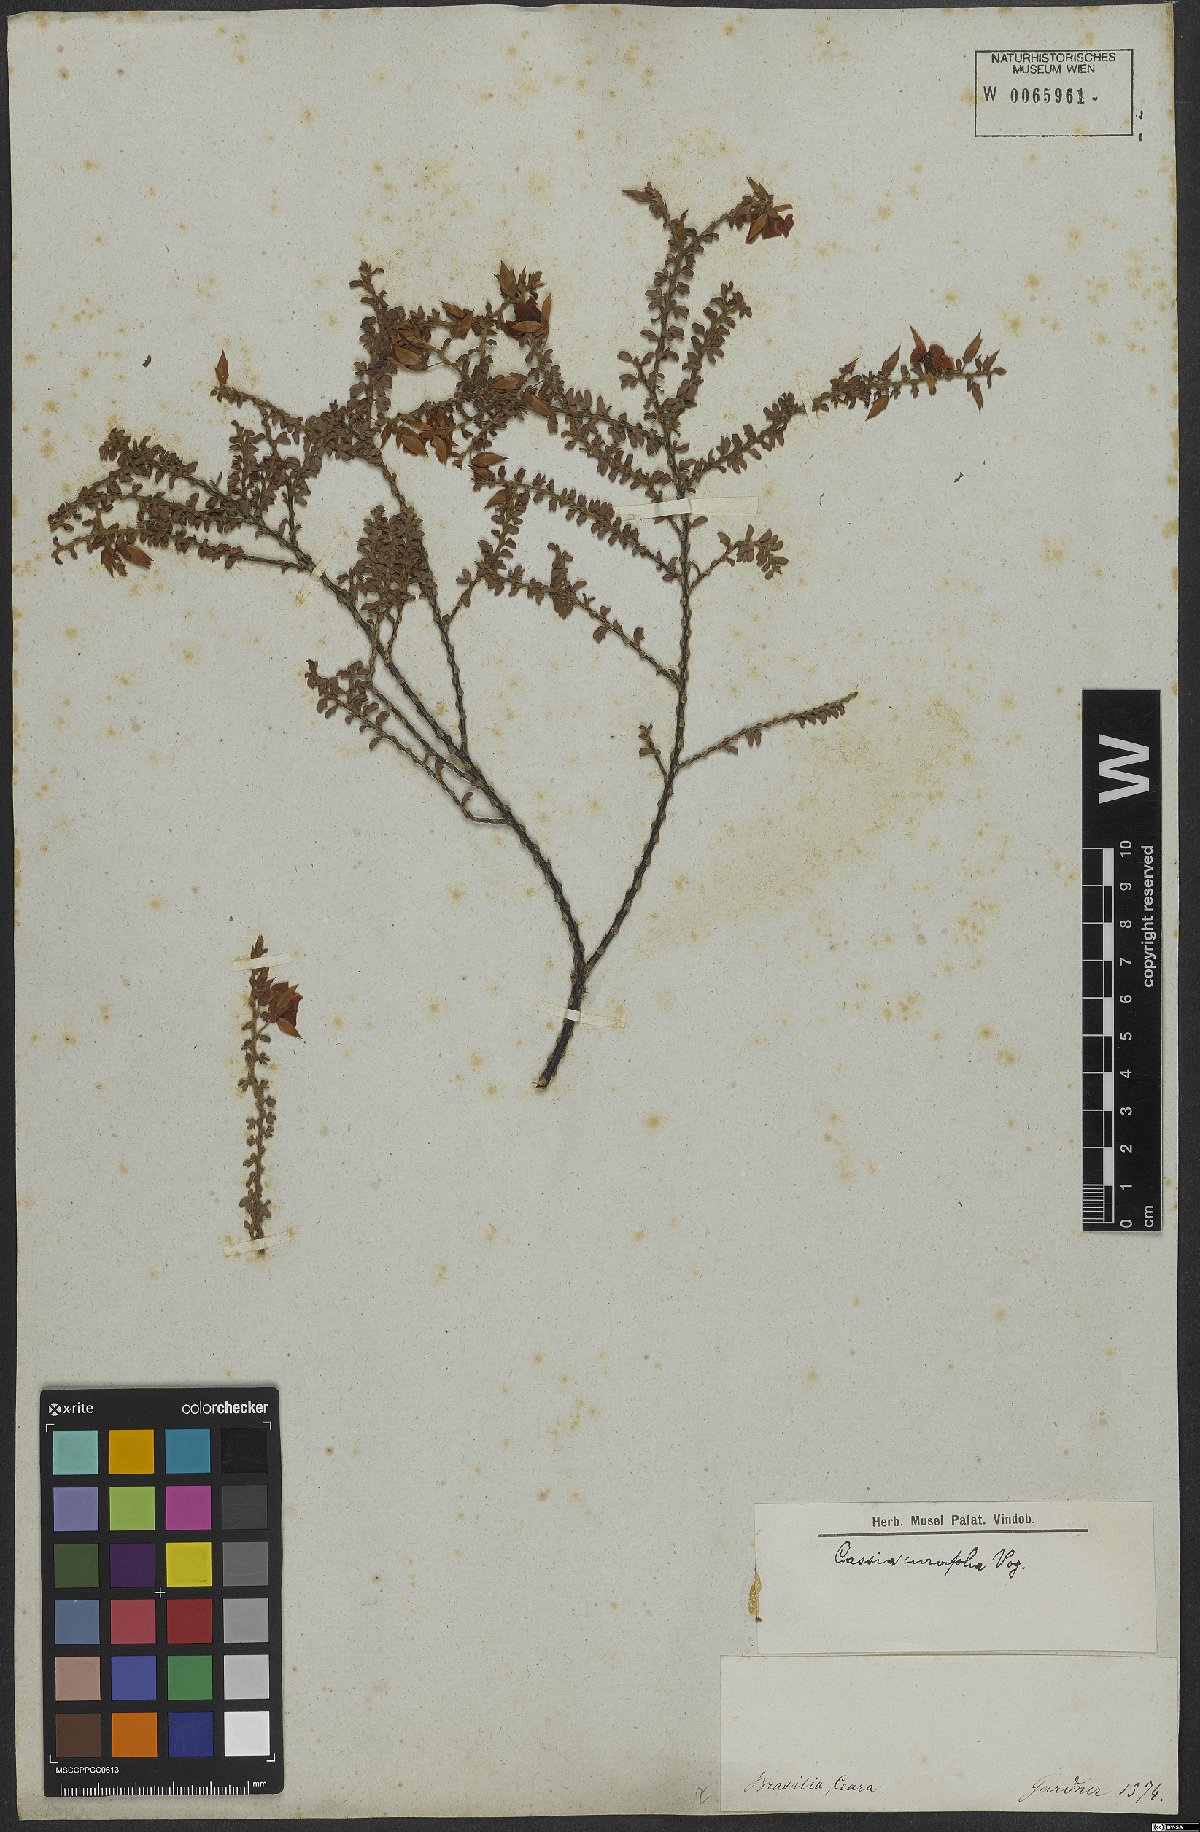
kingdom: Plantae
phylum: Tracheophyta
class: Magnoliopsida
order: Fabales
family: Fabaceae
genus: Chamaecrista
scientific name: Chamaecrista ramosa
